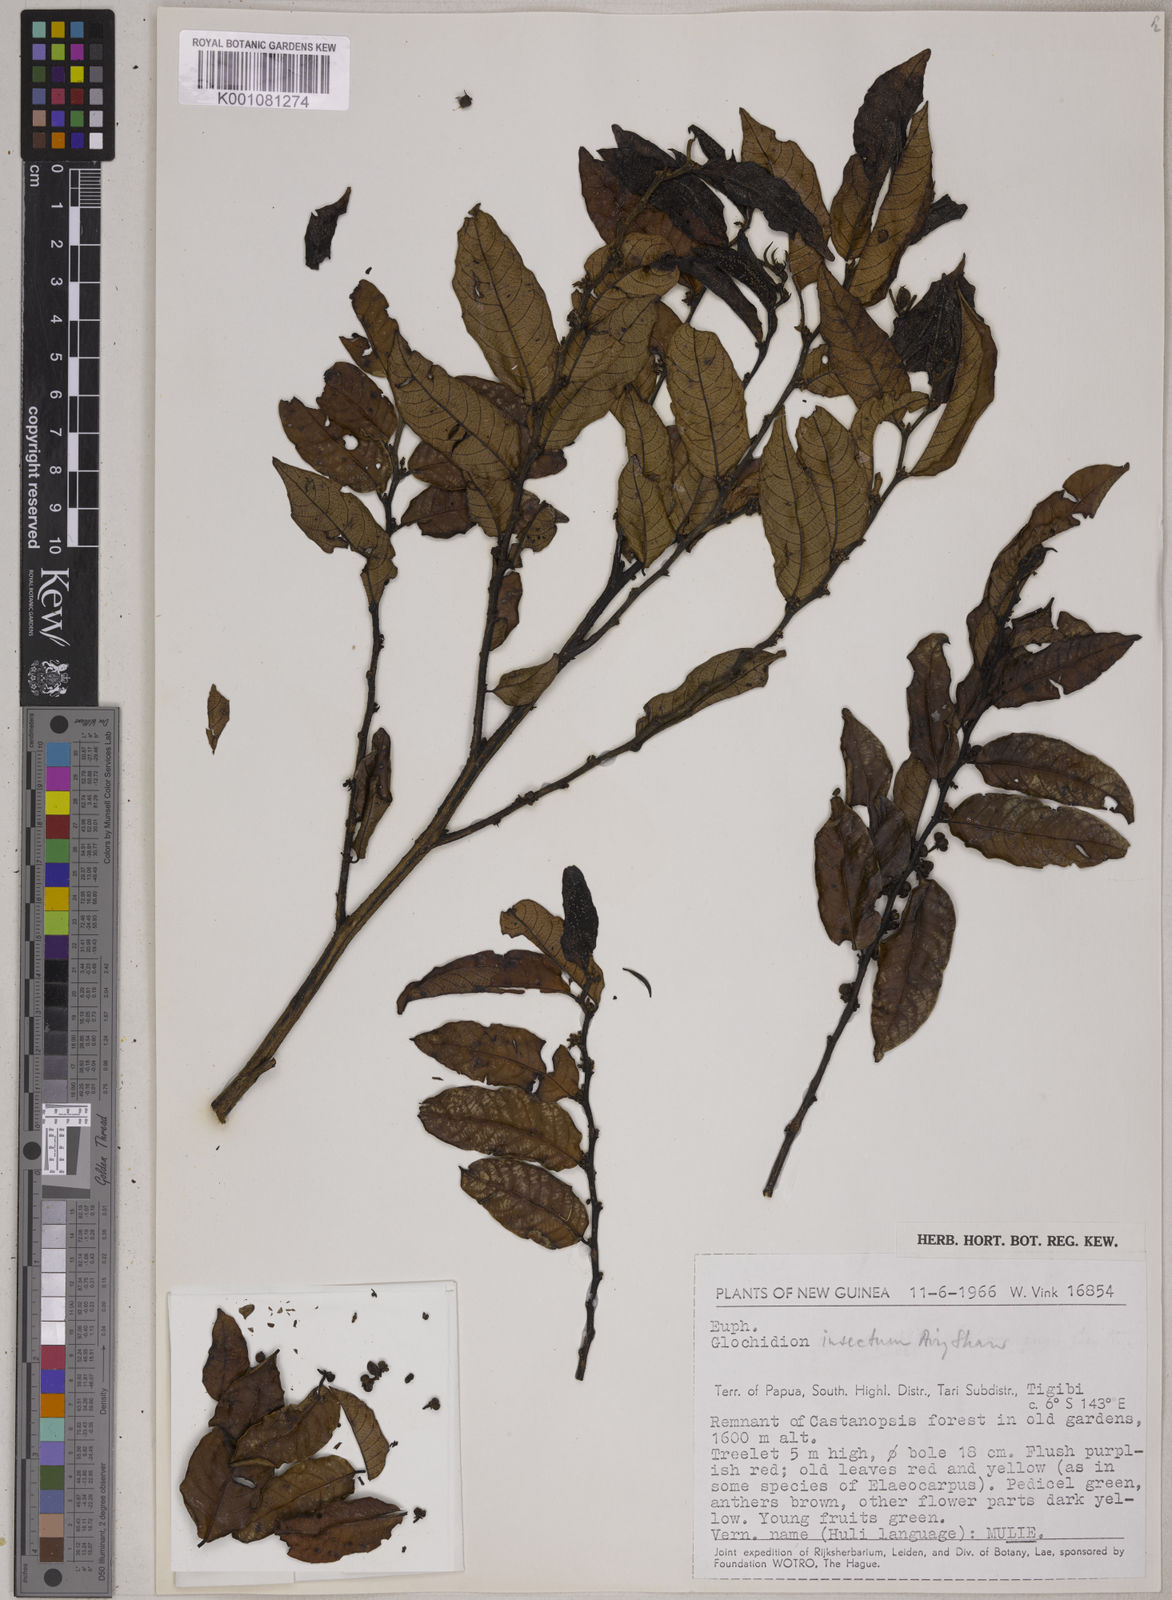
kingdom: Plantae
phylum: Tracheophyta
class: Magnoliopsida
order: Malpighiales
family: Phyllanthaceae
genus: Glochidion
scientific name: Glochidion insectum
